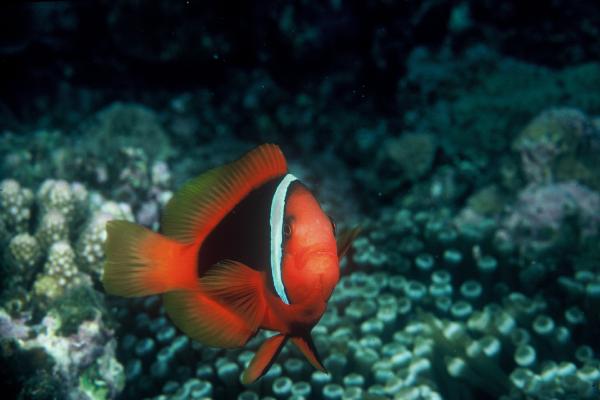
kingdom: Animalia
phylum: Chordata
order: Perciformes
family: Pomacentridae
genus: Amphiprion
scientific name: Amphiprion frenatus
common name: Tomato anemonefish
